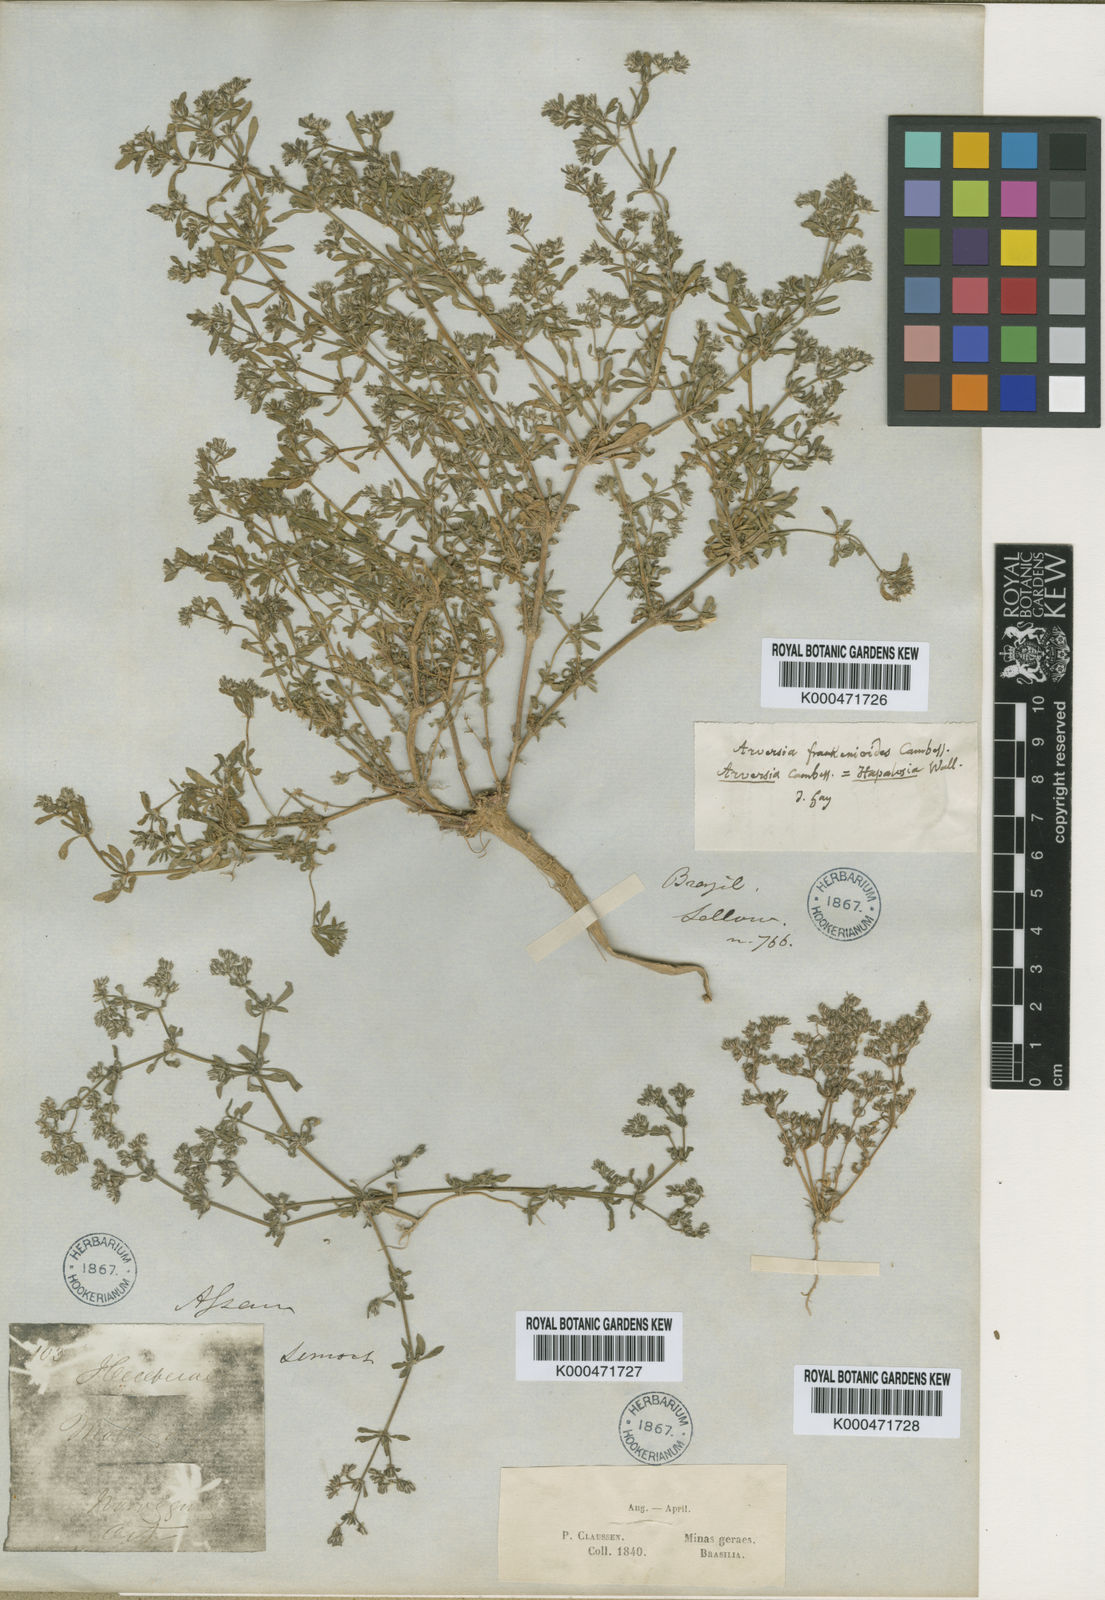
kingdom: Plantae
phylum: Tracheophyta
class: Magnoliopsida
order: Caryophyllales
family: Caryophyllaceae
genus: Polycarpon
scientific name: Polycarpon
